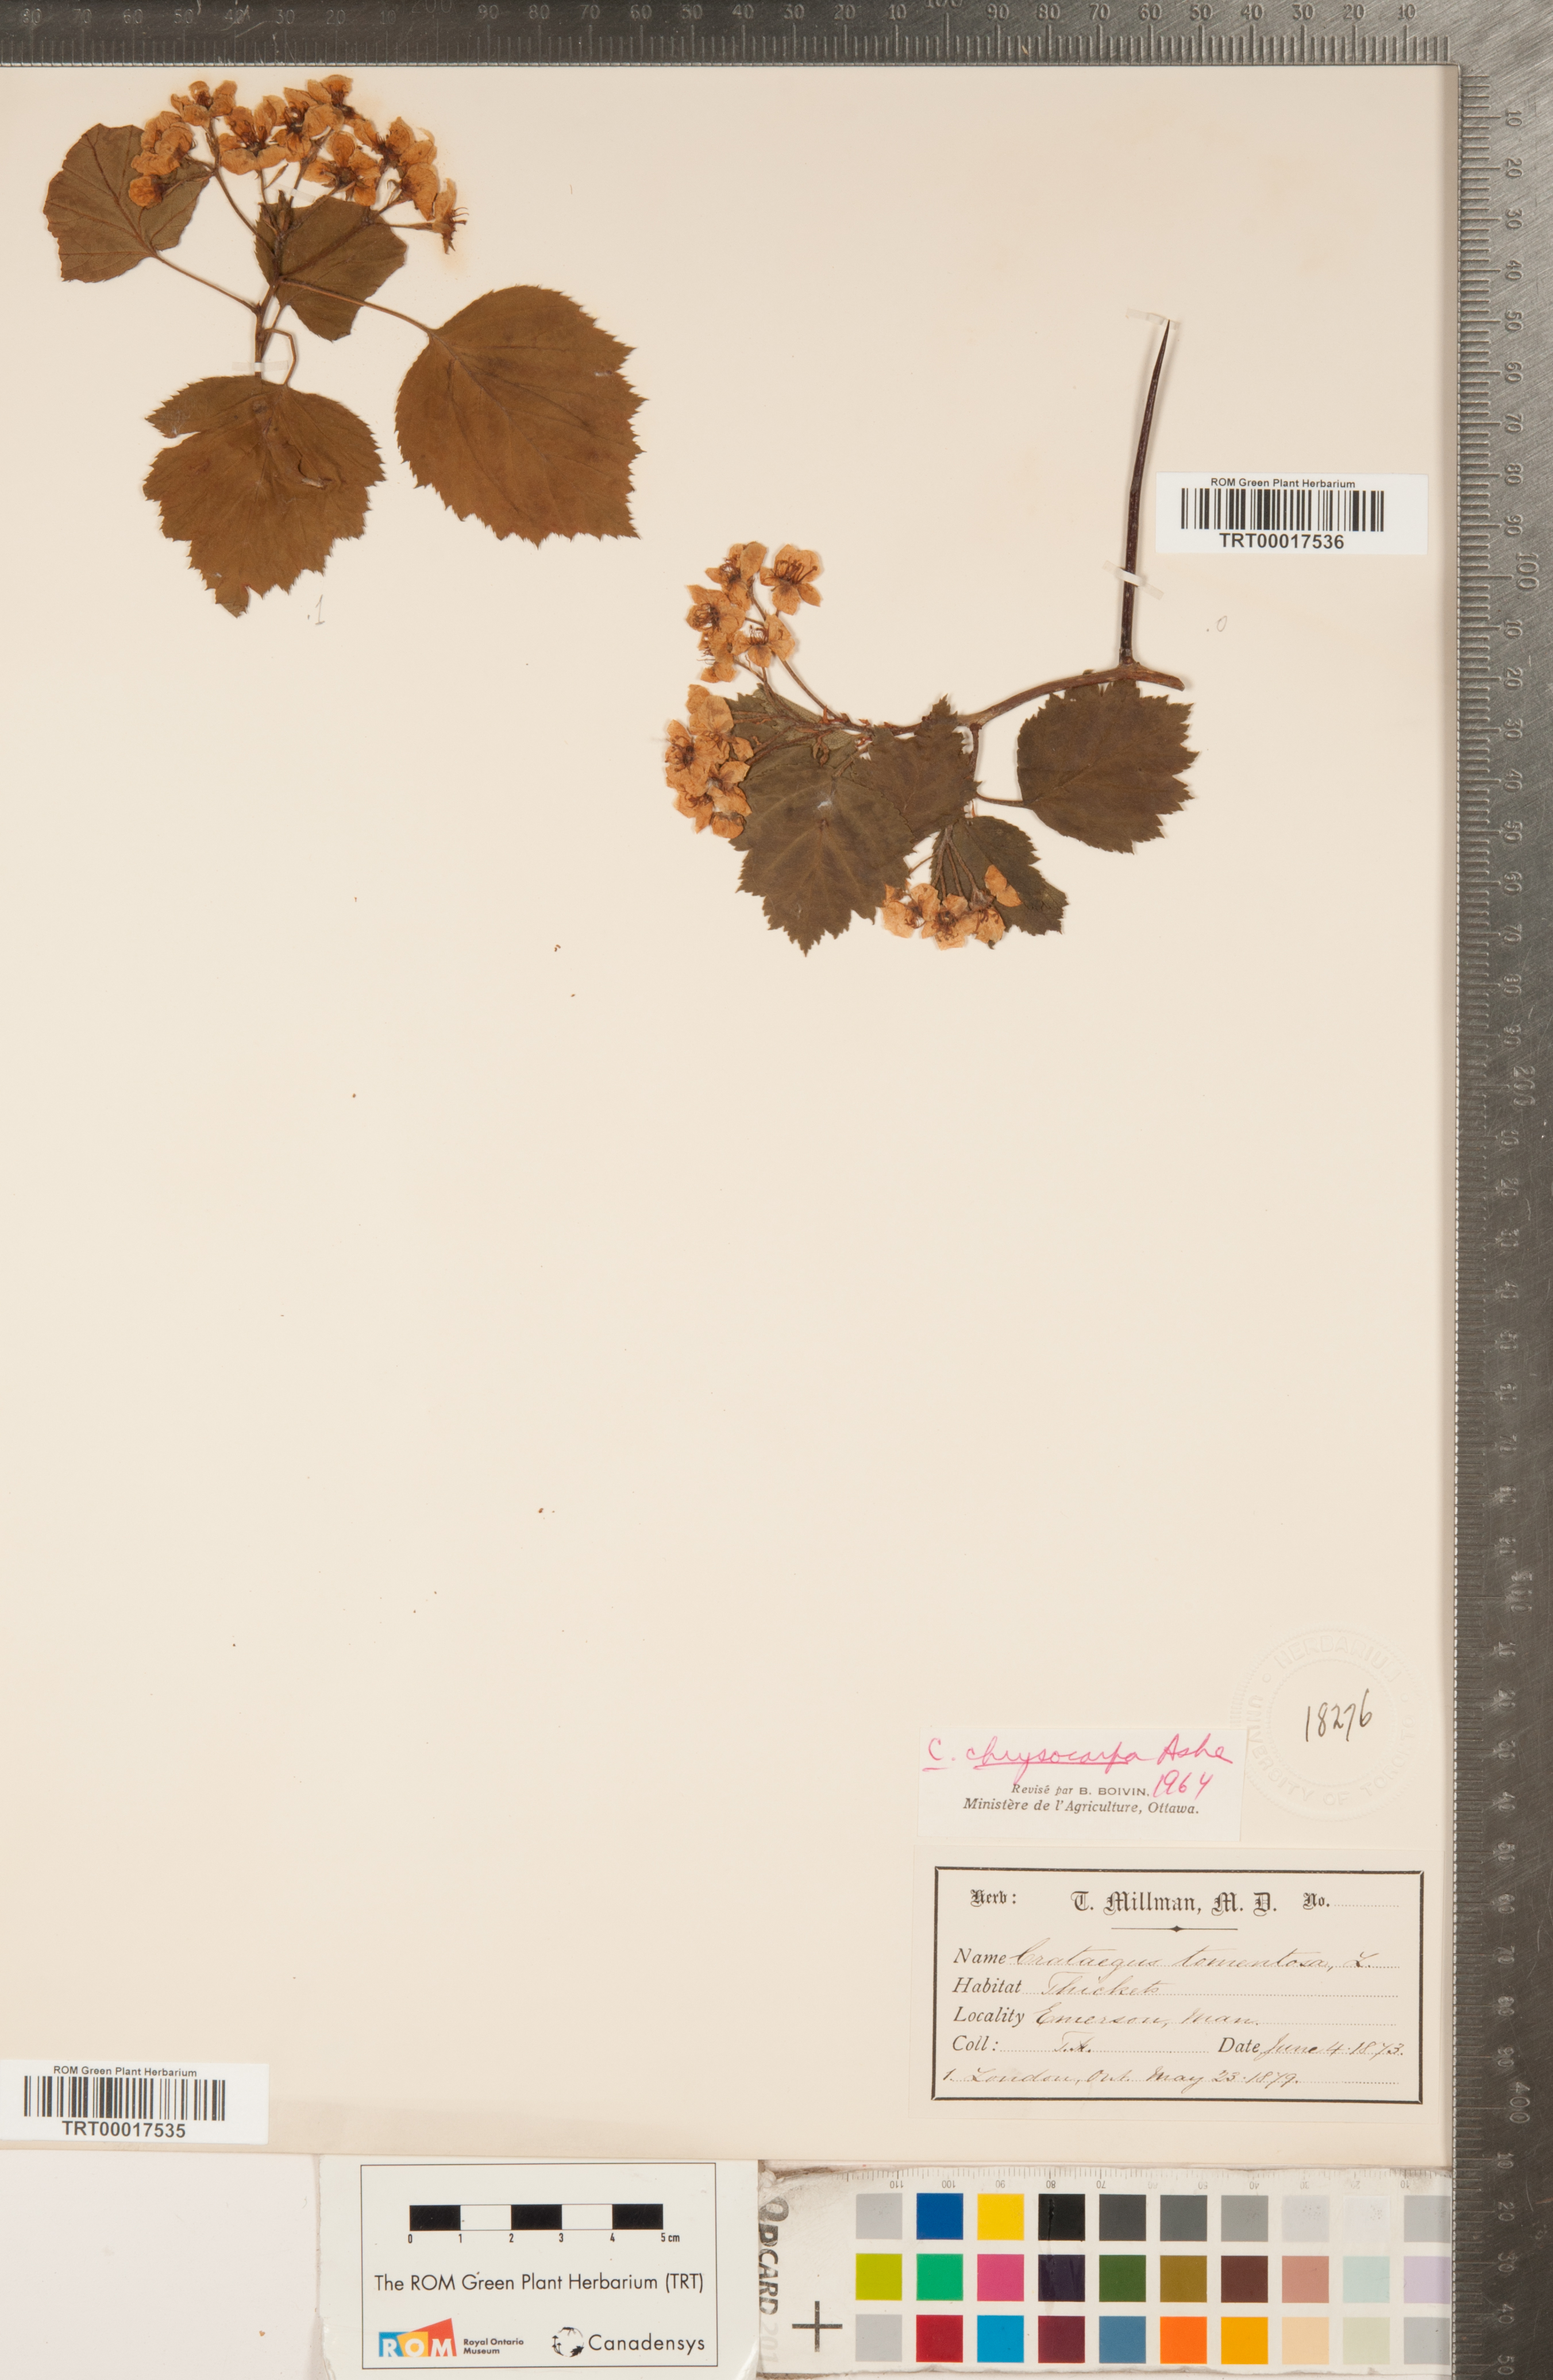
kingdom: Plantae
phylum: Tracheophyta
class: Magnoliopsida
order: Rosales
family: Rosaceae
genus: Crataegus
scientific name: Crataegus chrysocarpa
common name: Fire-berry hawthorn
